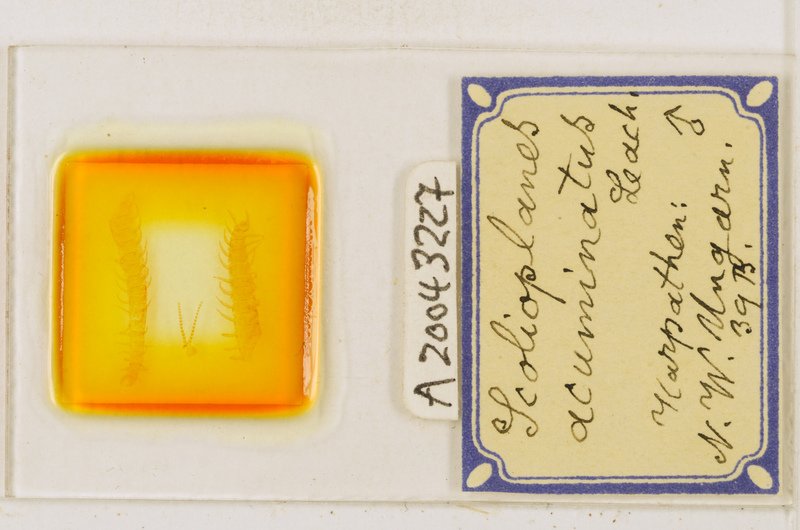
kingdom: Animalia
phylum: Arthropoda
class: Chilopoda
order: Geophilomorpha
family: Linotaeniidae
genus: Strigamia
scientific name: Strigamia acuminata
